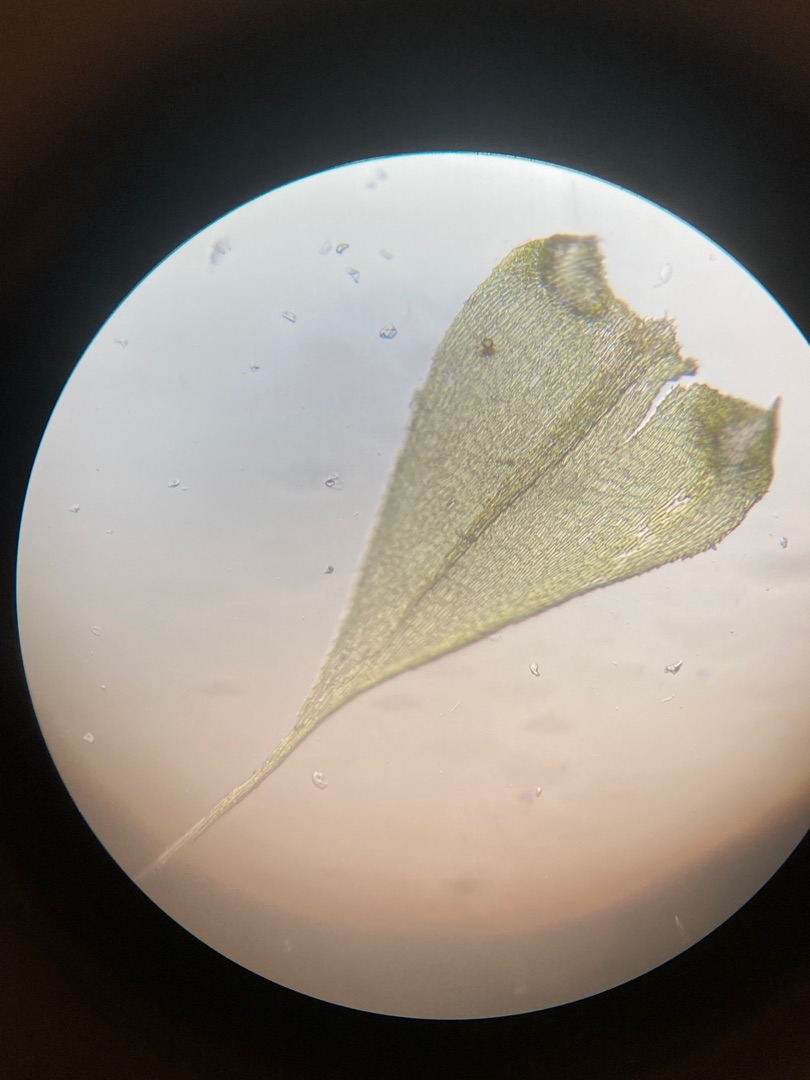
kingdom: Plantae
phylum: Bryophyta
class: Bryopsida
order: Hypnales
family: Lembophyllaceae
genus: Pseudisothecium
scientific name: Pseudisothecium myosuroides
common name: Slank stammemos
